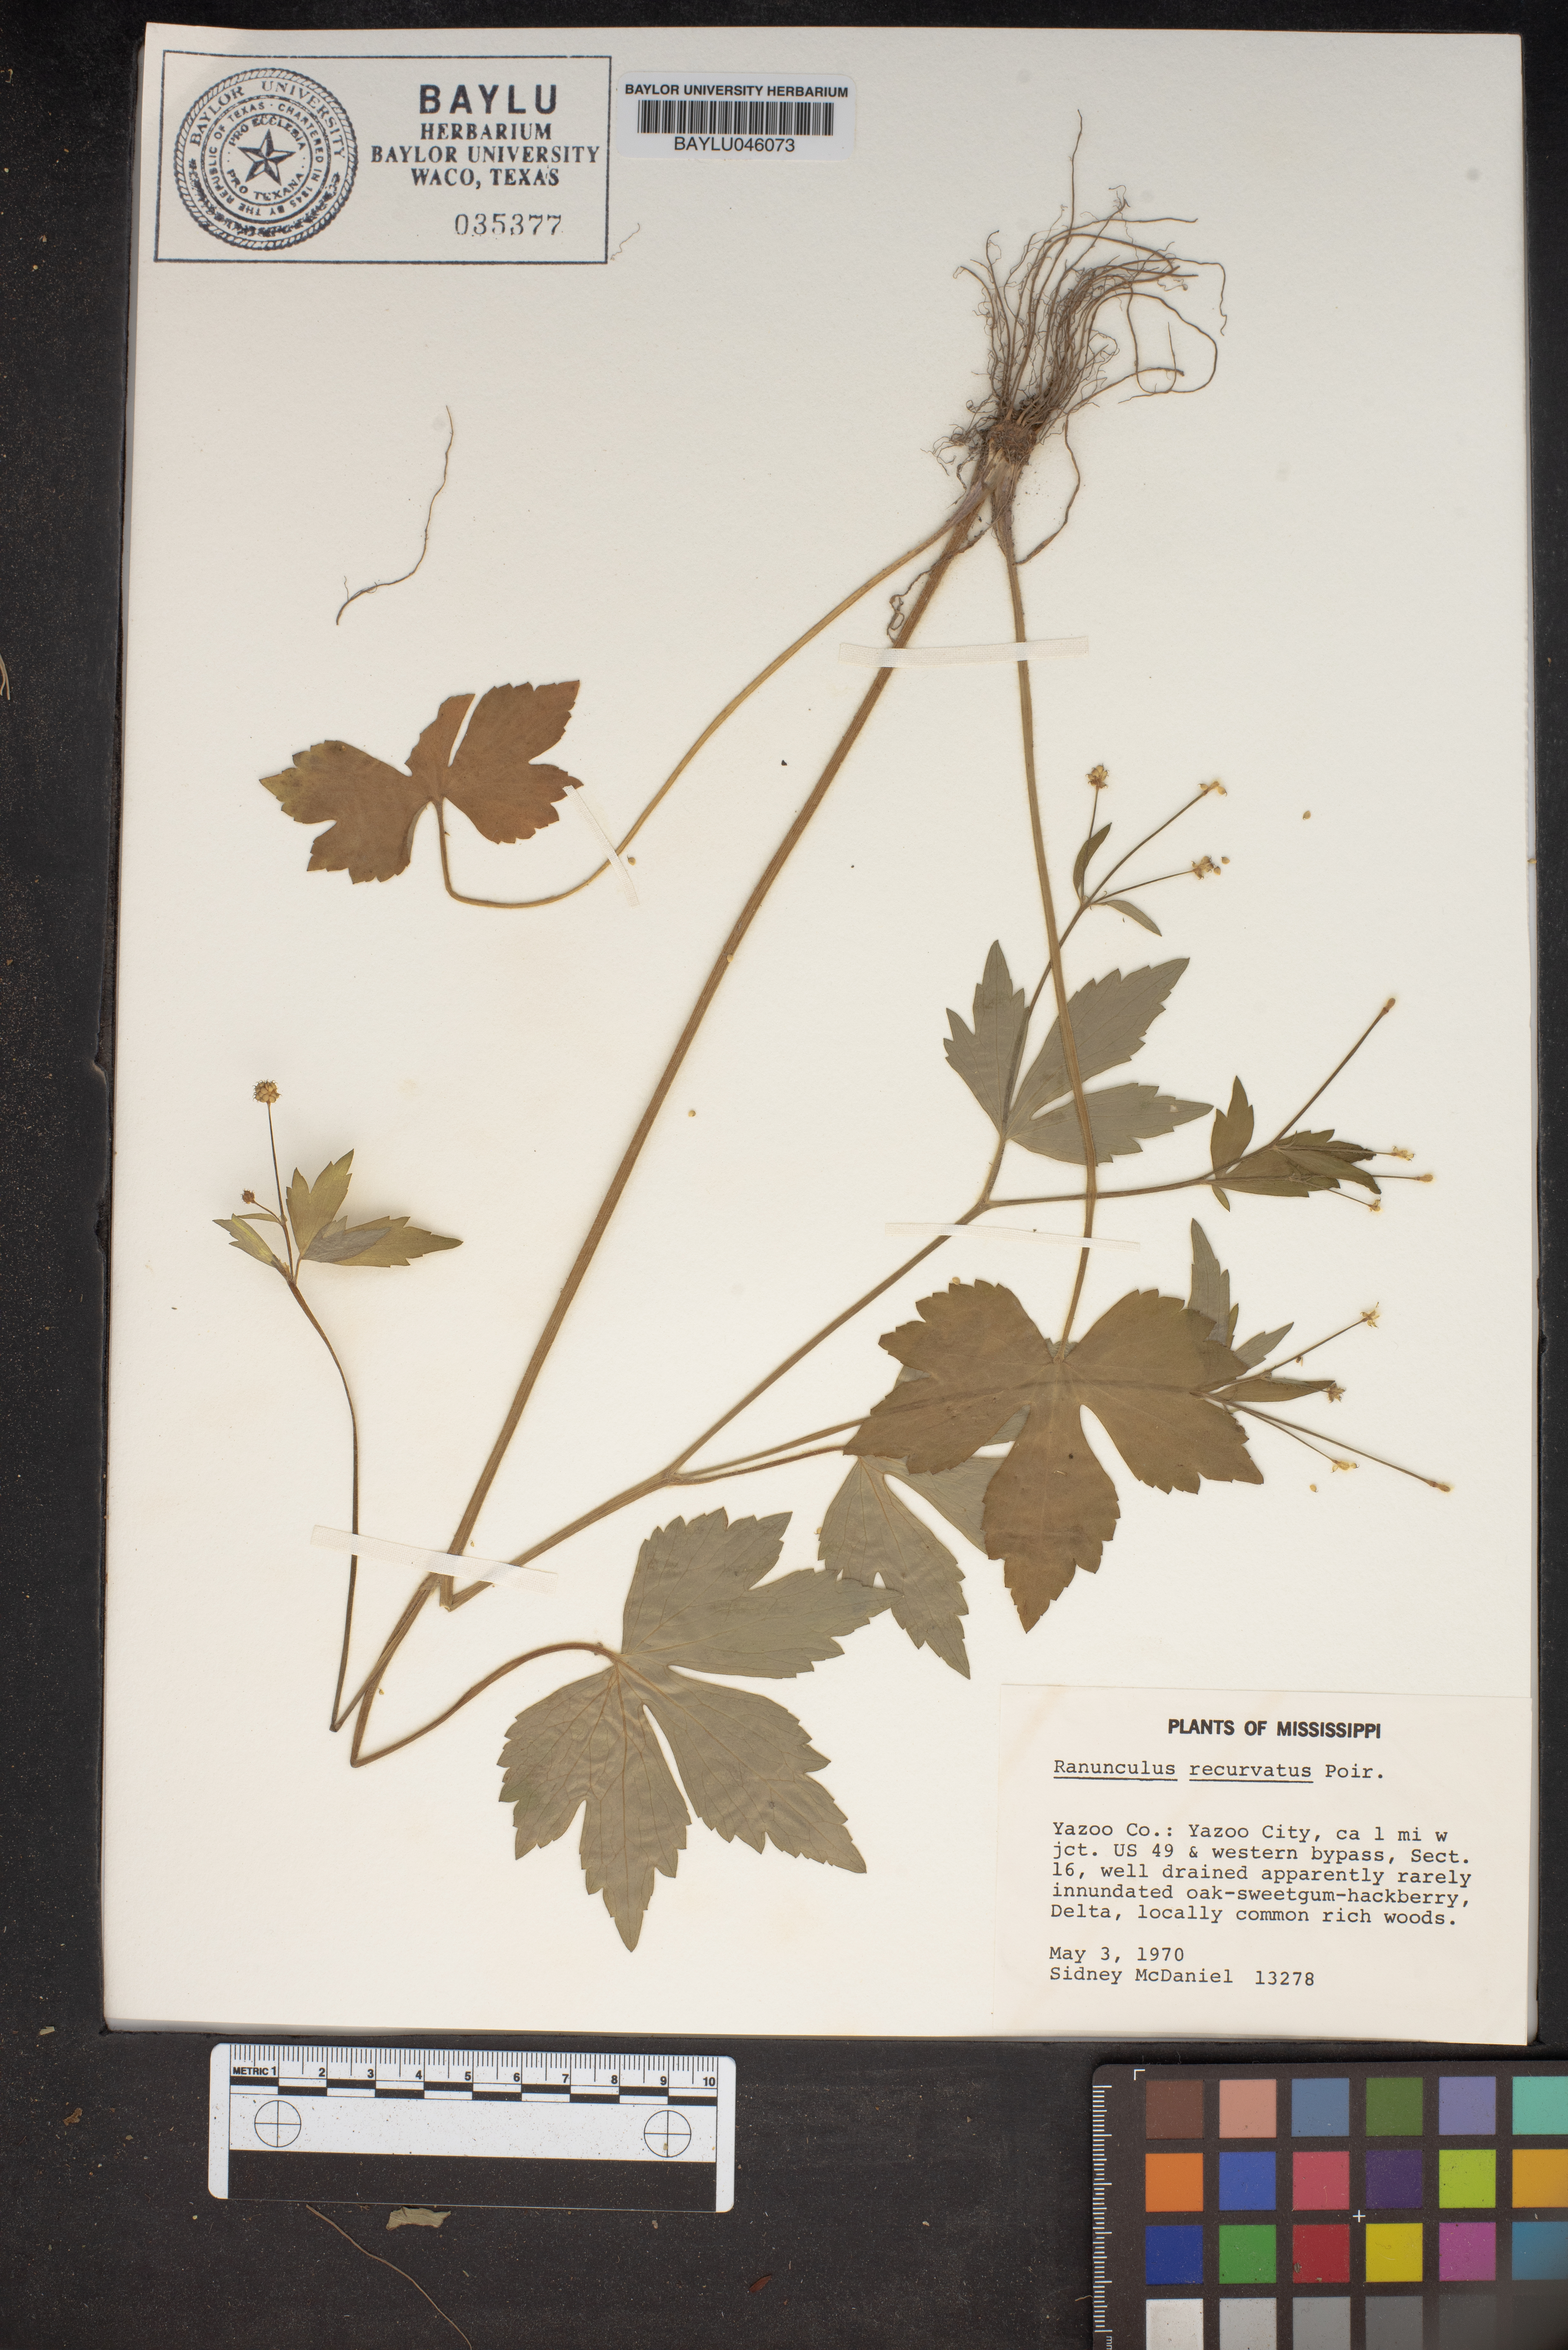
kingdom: Plantae
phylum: Tracheophyta
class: Magnoliopsida
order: Ranunculales
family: Ranunculaceae
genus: Ranunculus
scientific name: Ranunculus recurvatus
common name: Blisterwort
